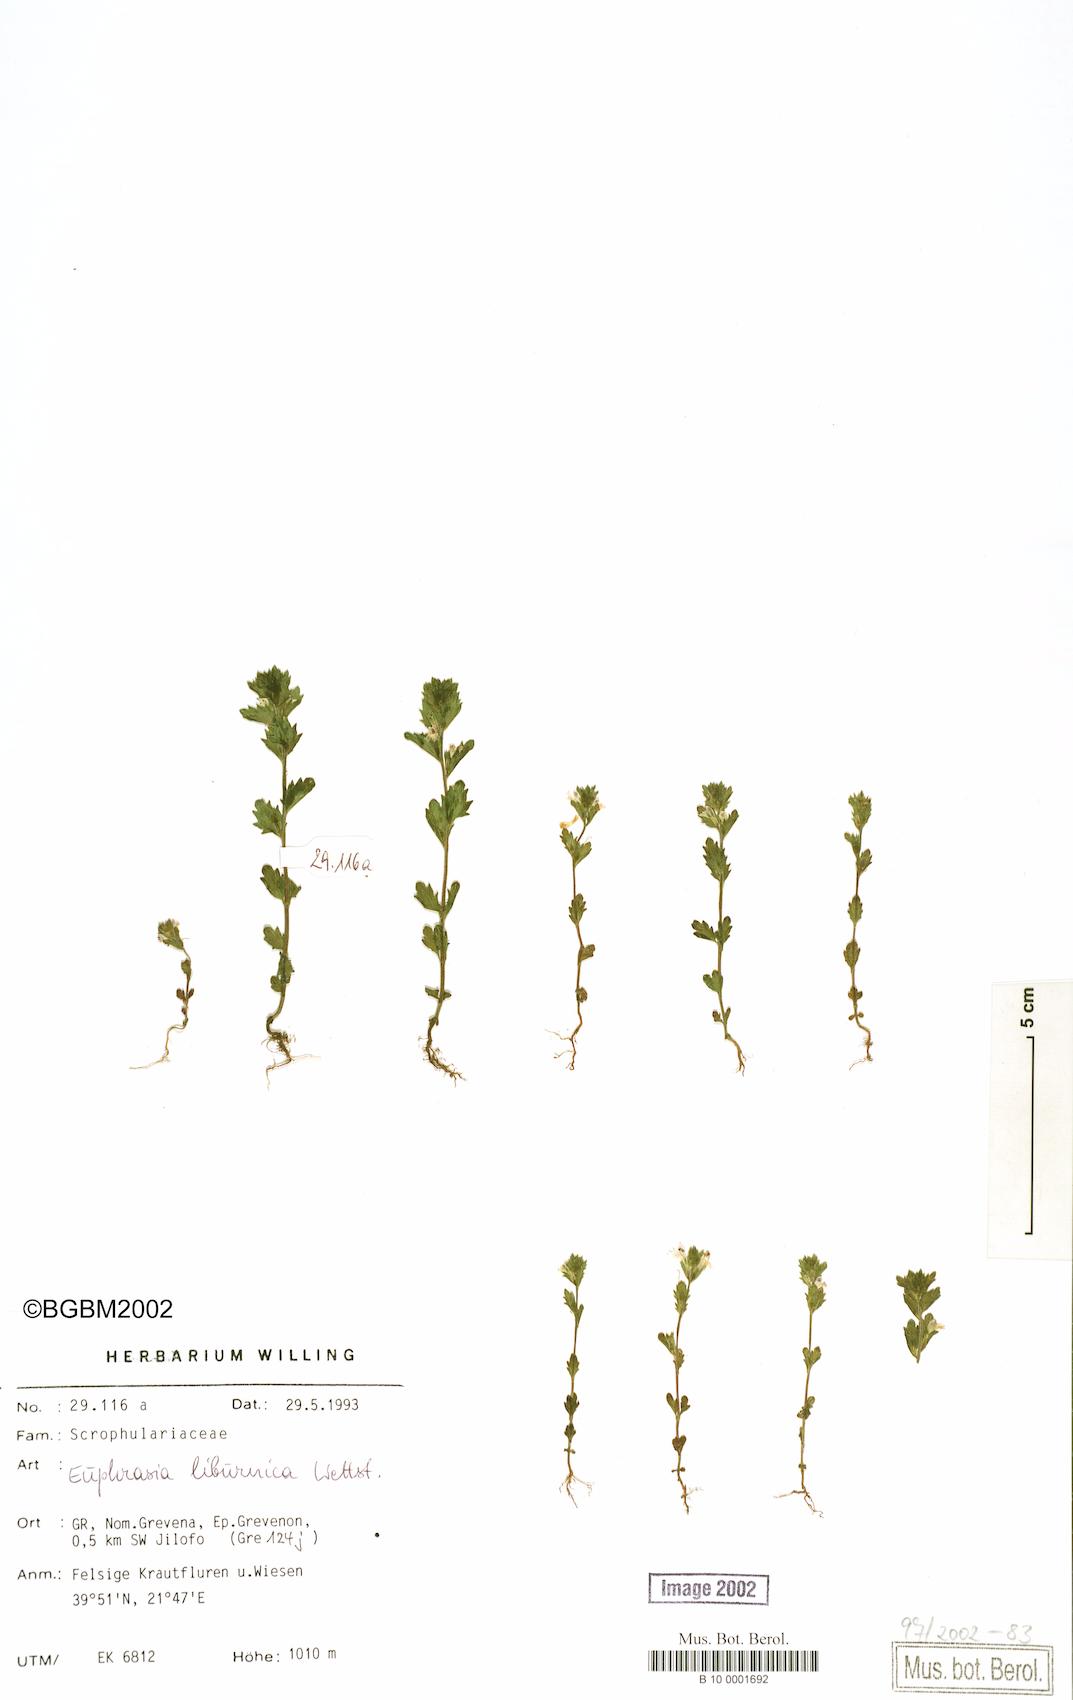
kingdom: Plantae
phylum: Tracheophyta
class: Magnoliopsida
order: Lamiales
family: Orobanchaceae
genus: Euphrasia
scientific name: Euphrasia liburnica
